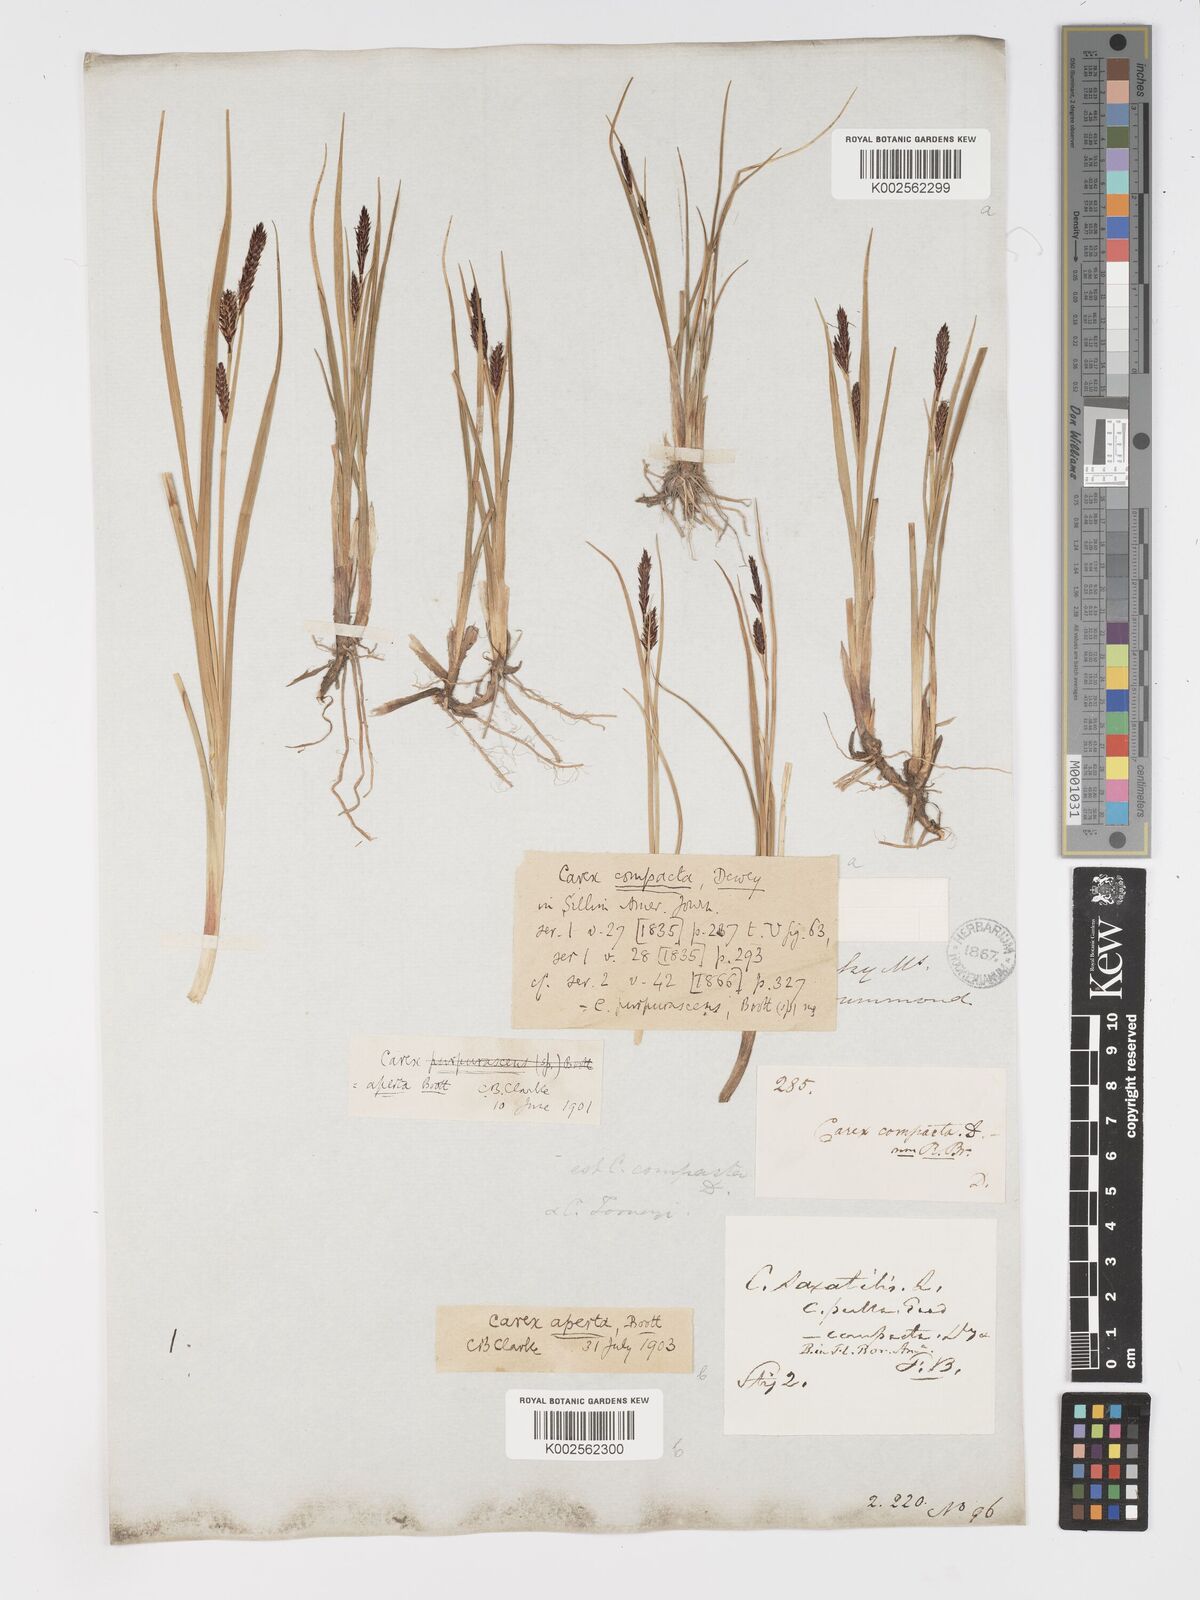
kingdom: Plantae
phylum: Tracheophyta
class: Liliopsida
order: Poales
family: Cyperaceae
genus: Carex
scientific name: Carex aperta
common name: Columbia sedge
